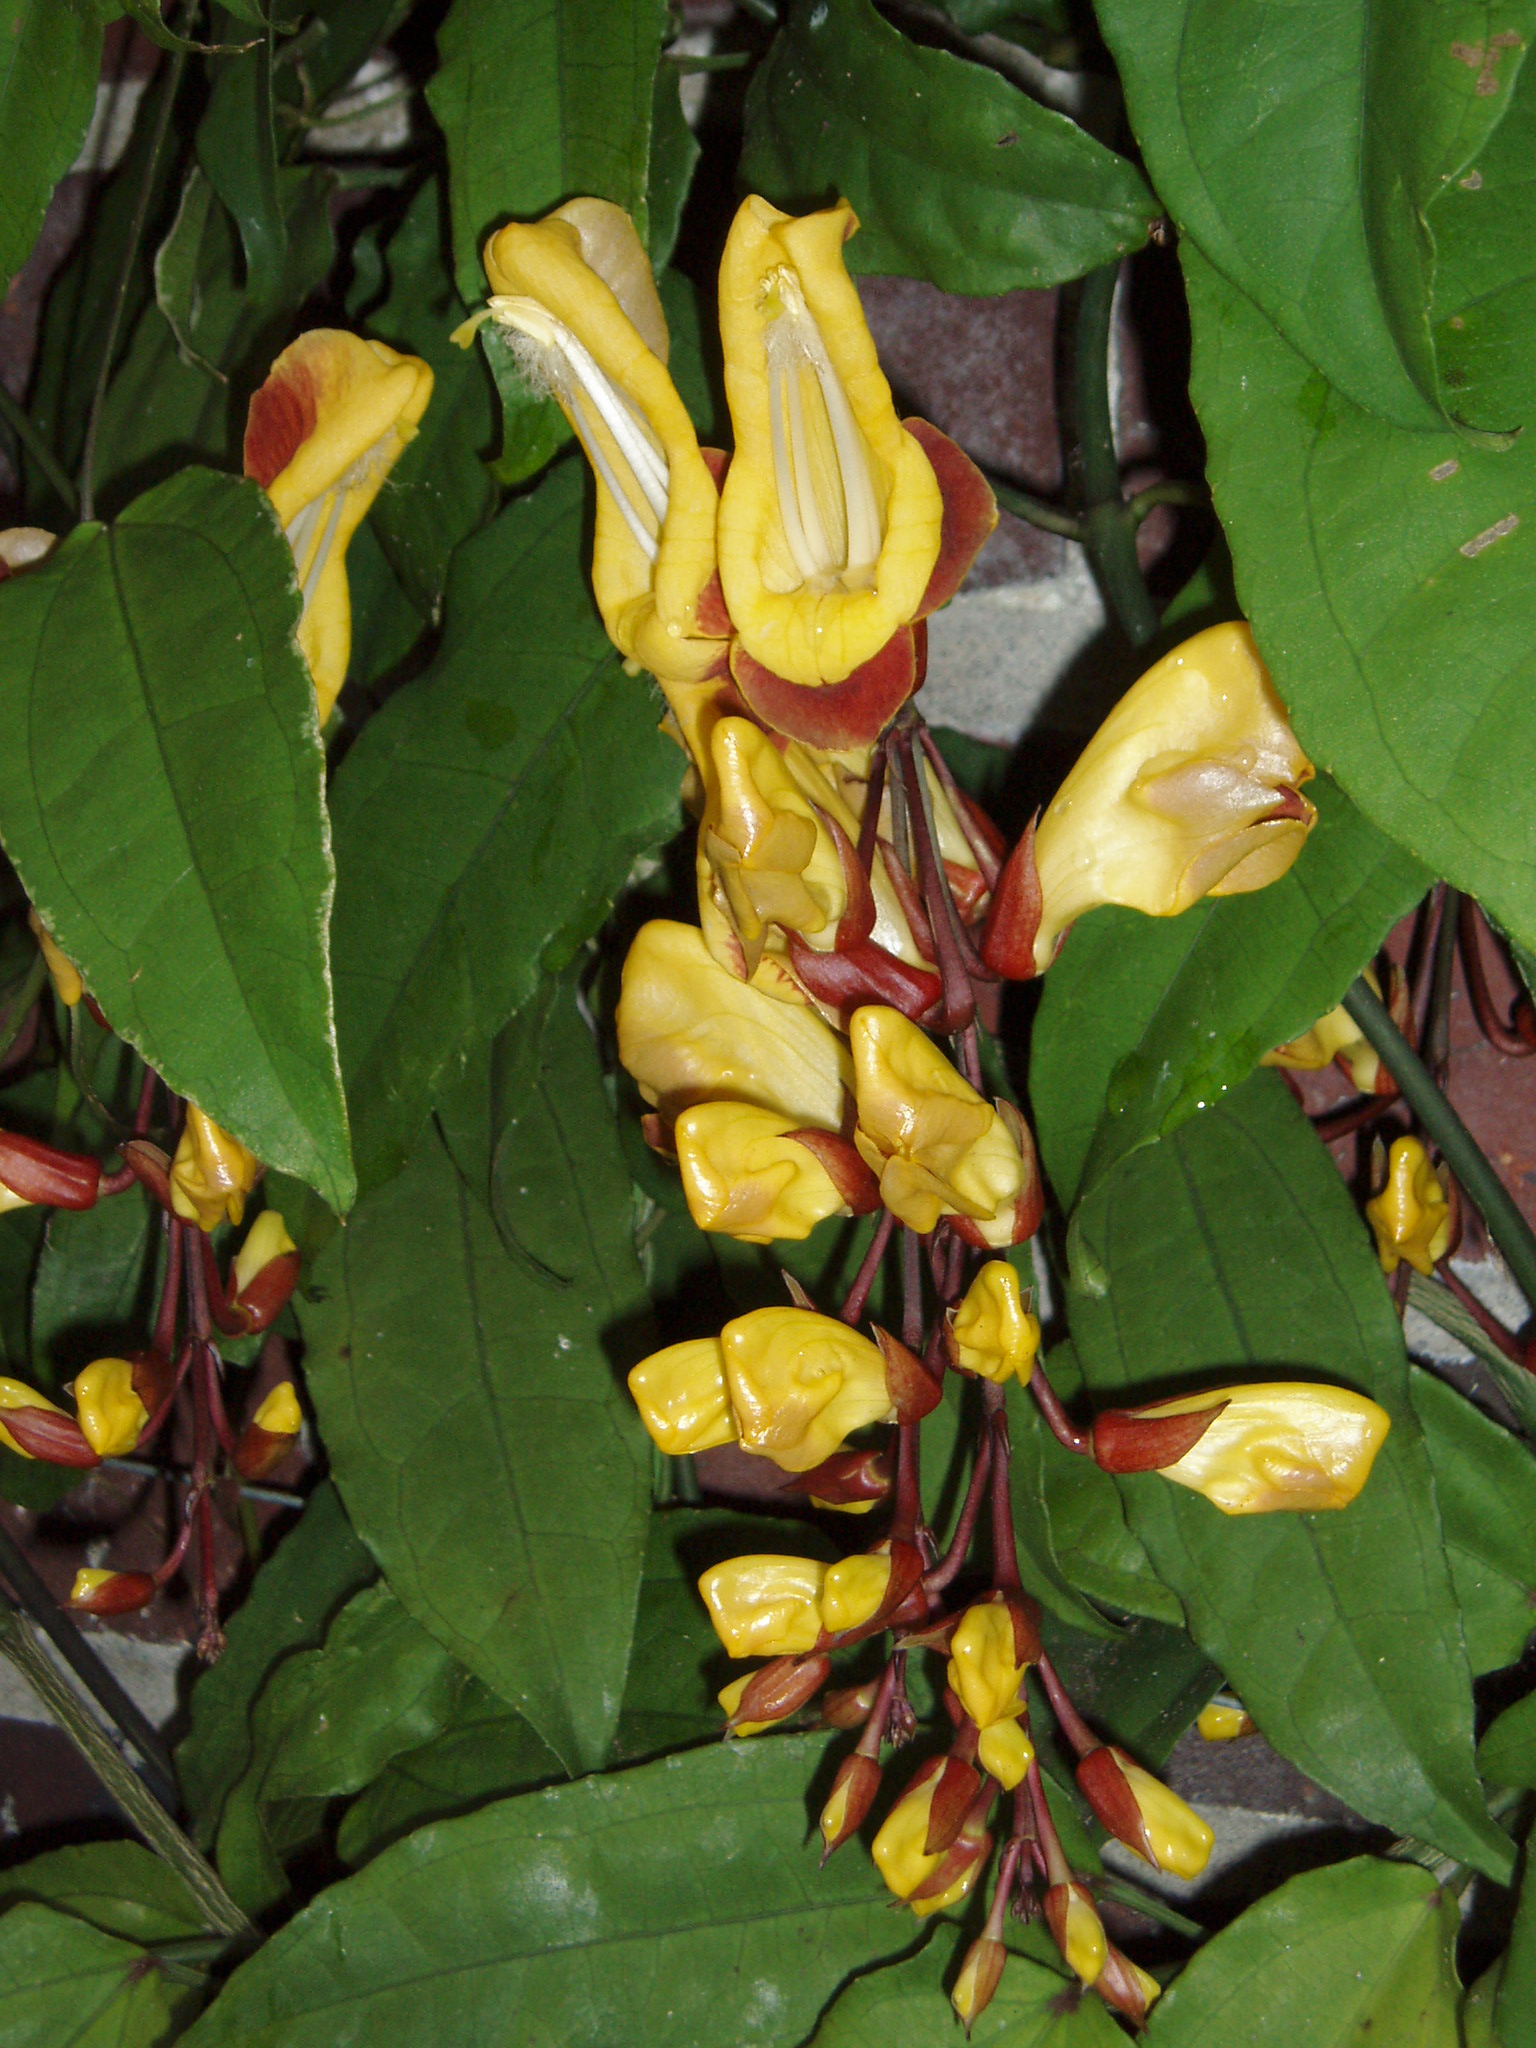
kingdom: Plantae
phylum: Tracheophyta
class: Magnoliopsida
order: Lamiales
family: Acanthaceae
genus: Thunbergia
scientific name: Thunbergia mysorensis
